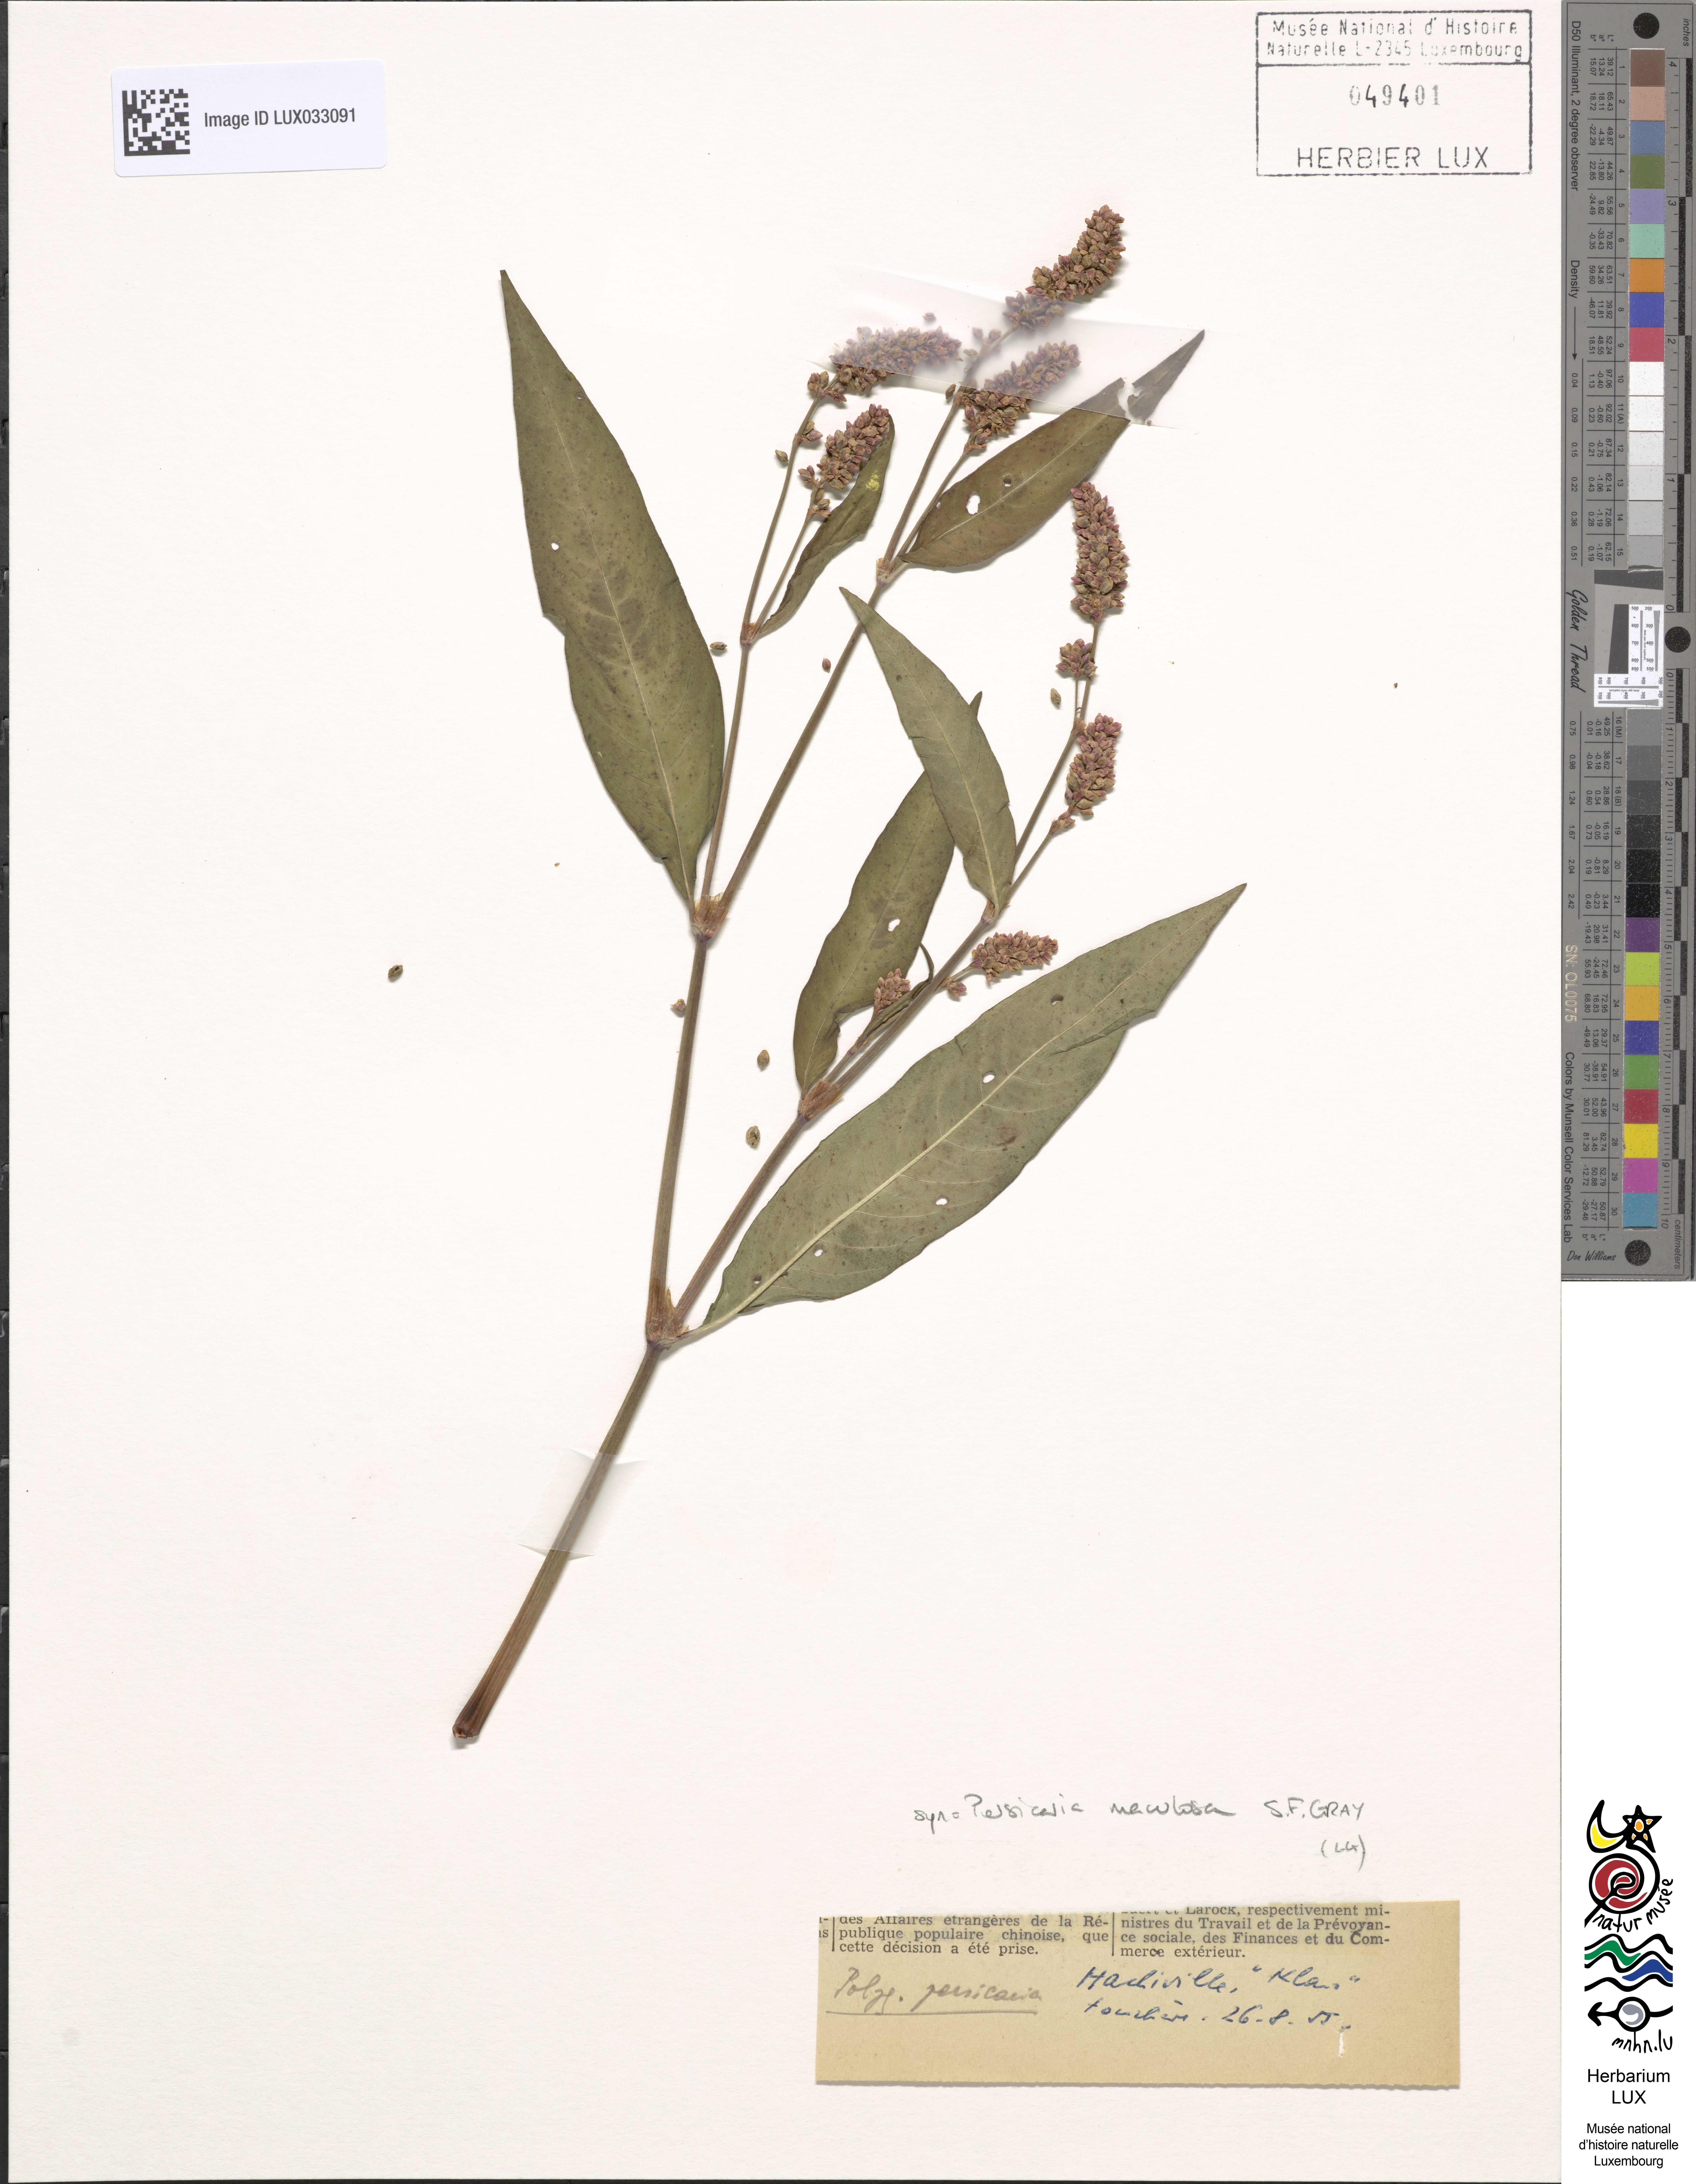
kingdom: Plantae
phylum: Tracheophyta
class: Magnoliopsida
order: Caryophyllales
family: Polygonaceae
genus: Persicaria
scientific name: Persicaria maculosa
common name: Redshank
